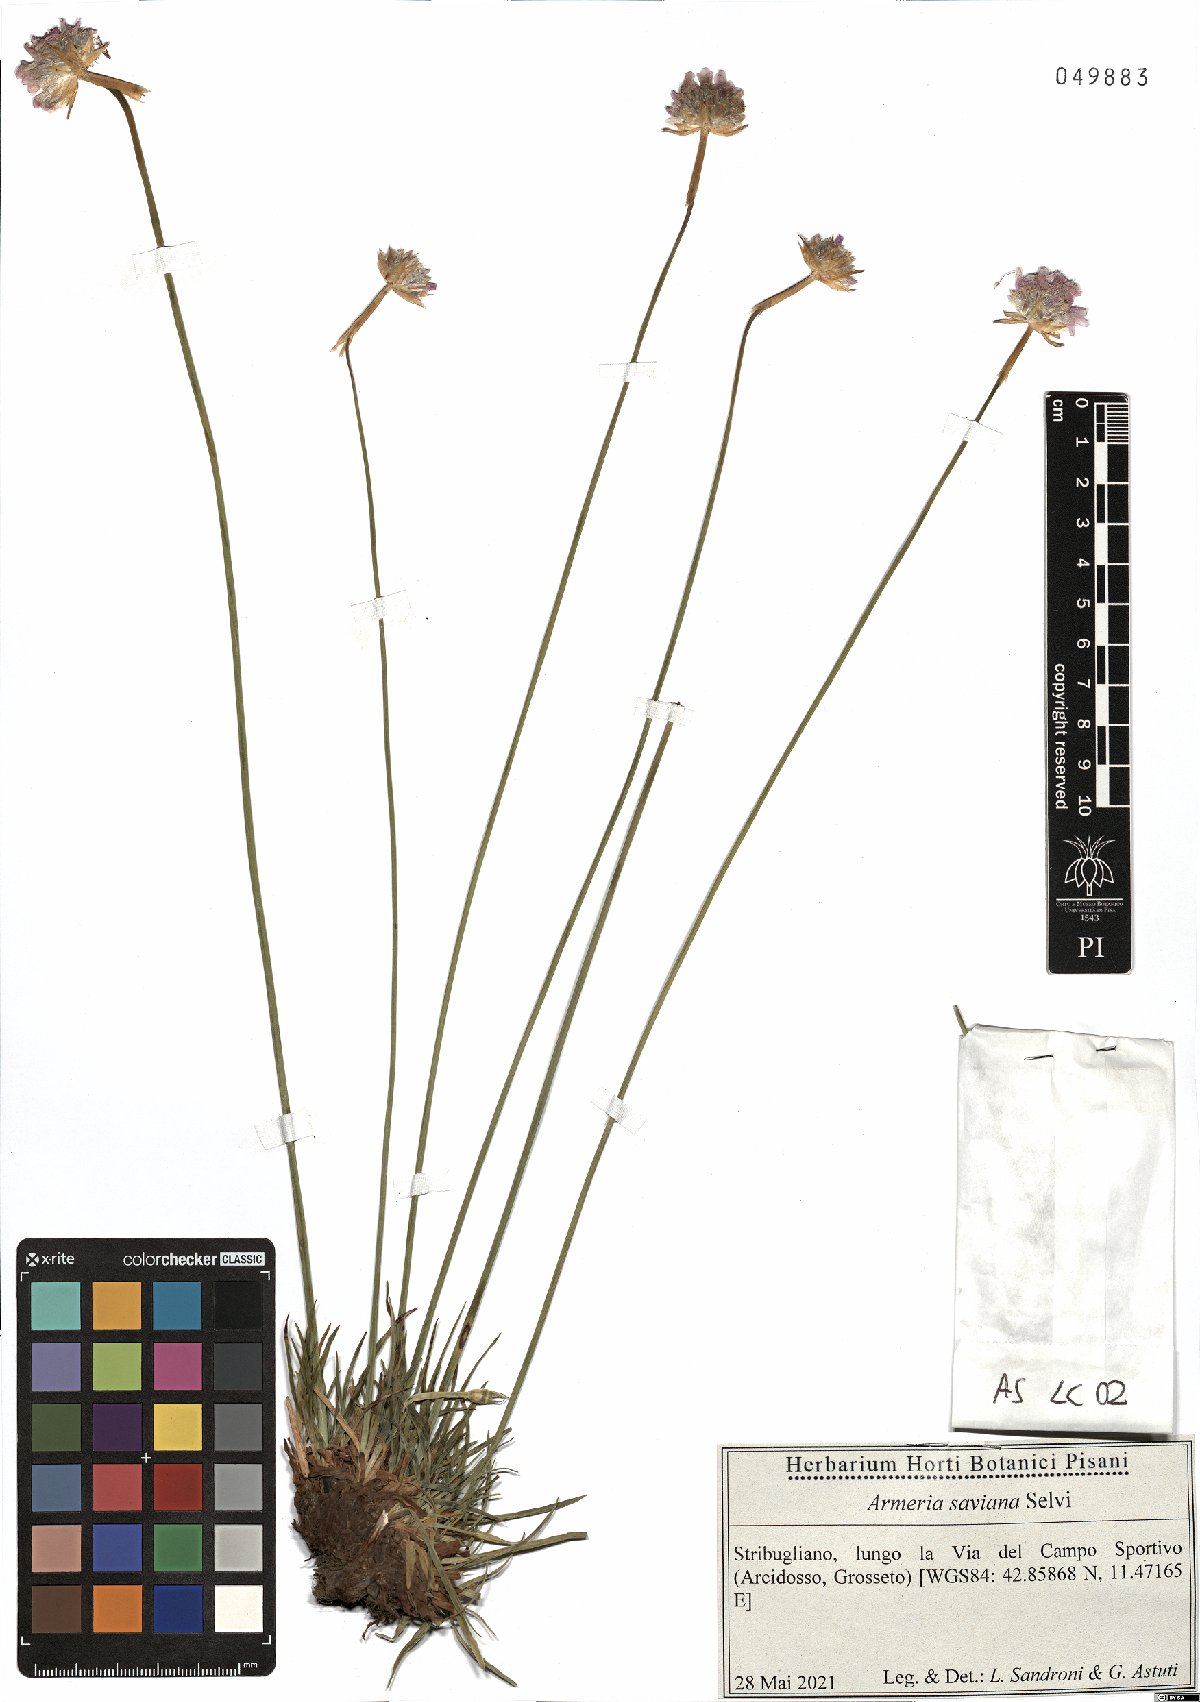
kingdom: Plantae
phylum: Tracheophyta
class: Magnoliopsida
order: Caryophyllales
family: Plumbaginaceae
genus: Armeria
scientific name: Armeria saviana
